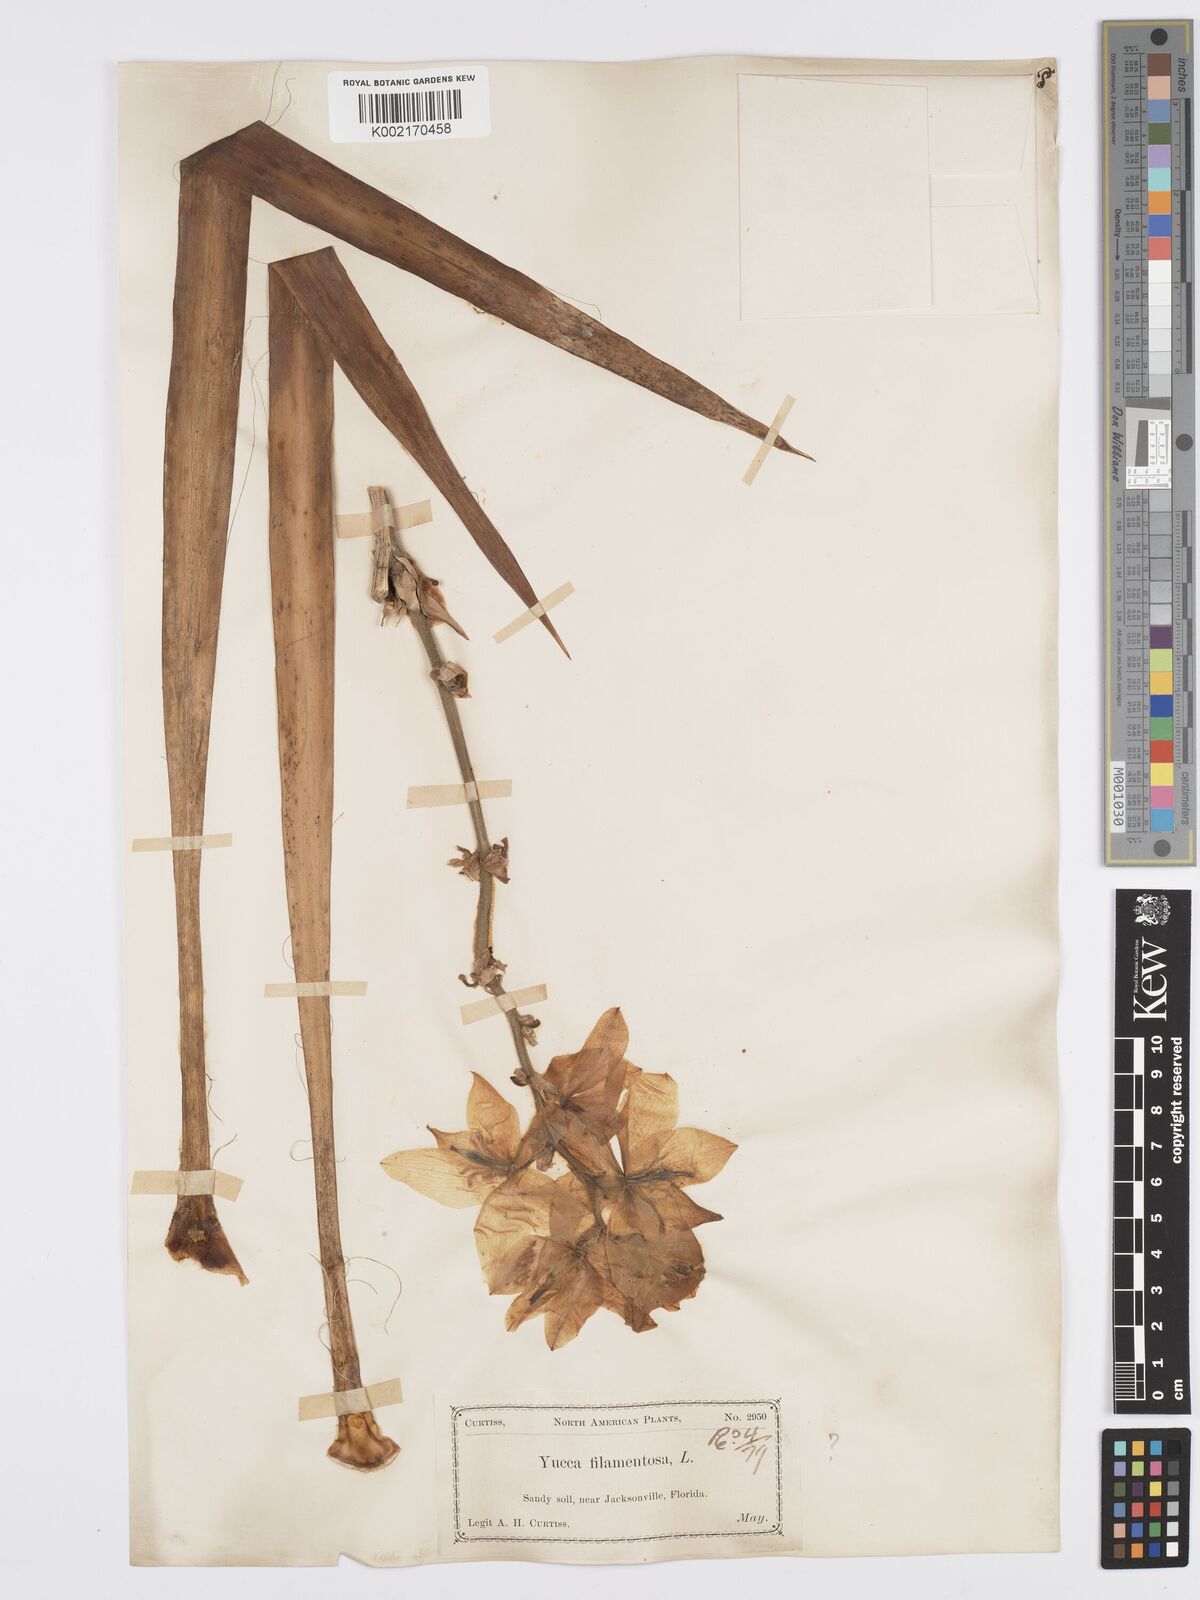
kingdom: Plantae
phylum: Tracheophyta
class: Liliopsida
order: Asparagales
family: Asparagaceae
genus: Yucca
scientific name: Yucca filamentosa
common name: Adam's-needle
